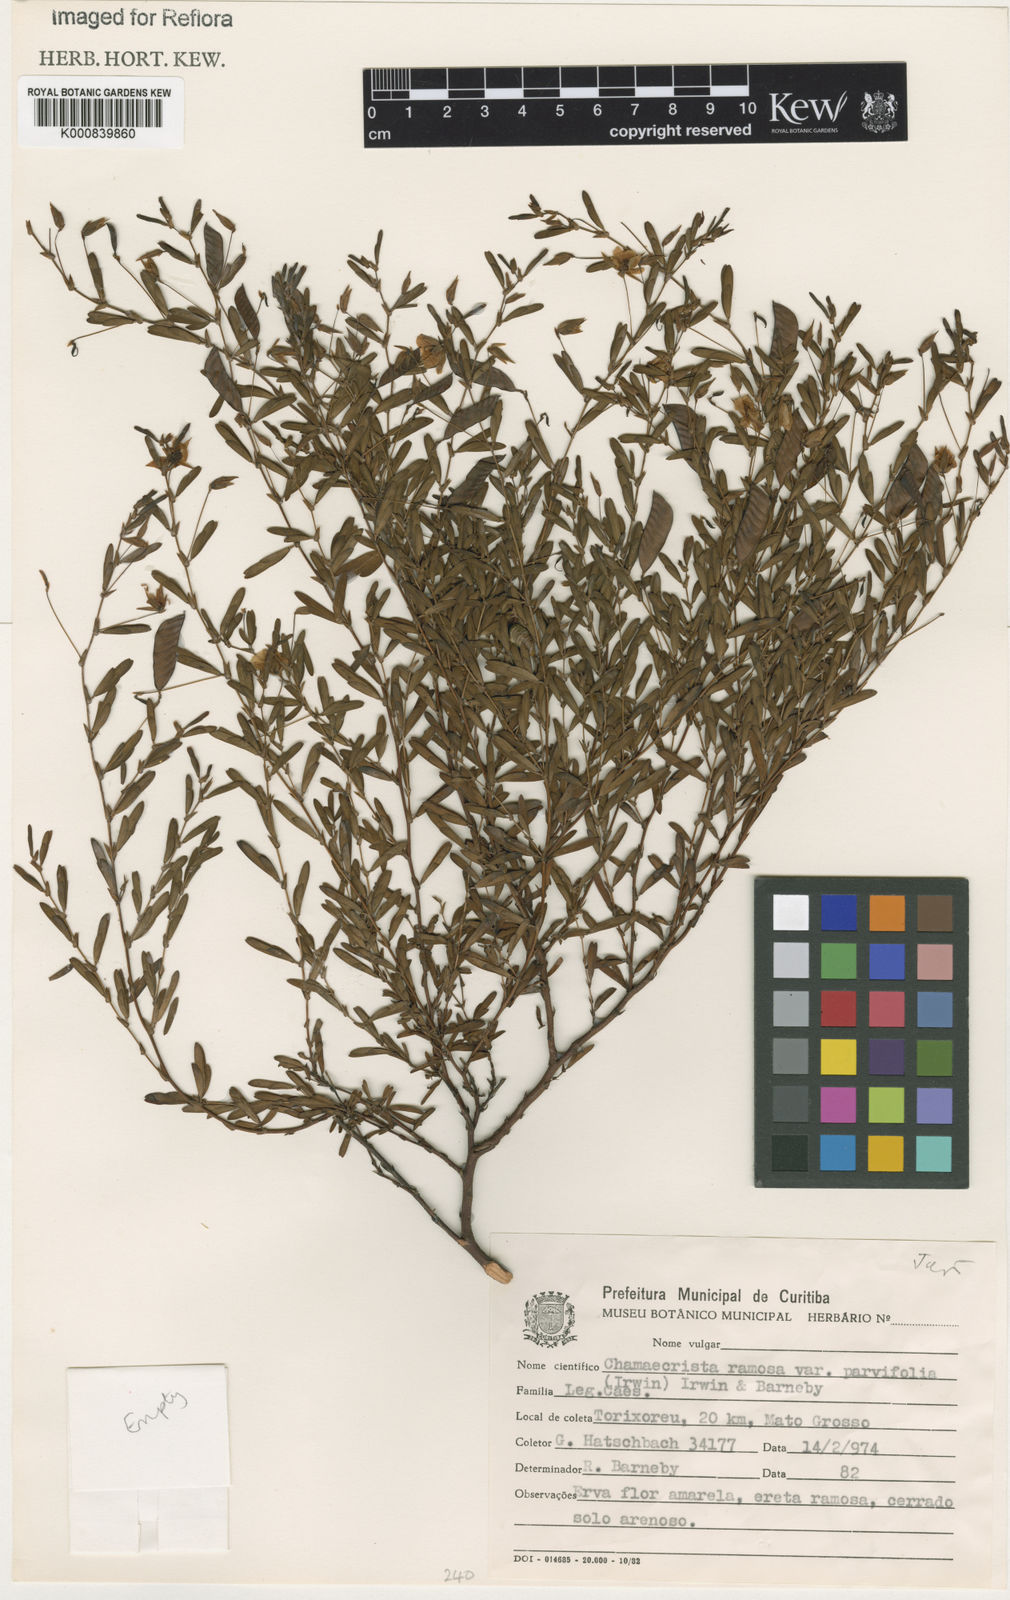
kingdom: Plantae
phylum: Tracheophyta
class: Magnoliopsida
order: Fabales
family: Fabaceae
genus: Chamaecrista
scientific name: Chamaecrista ramosa
